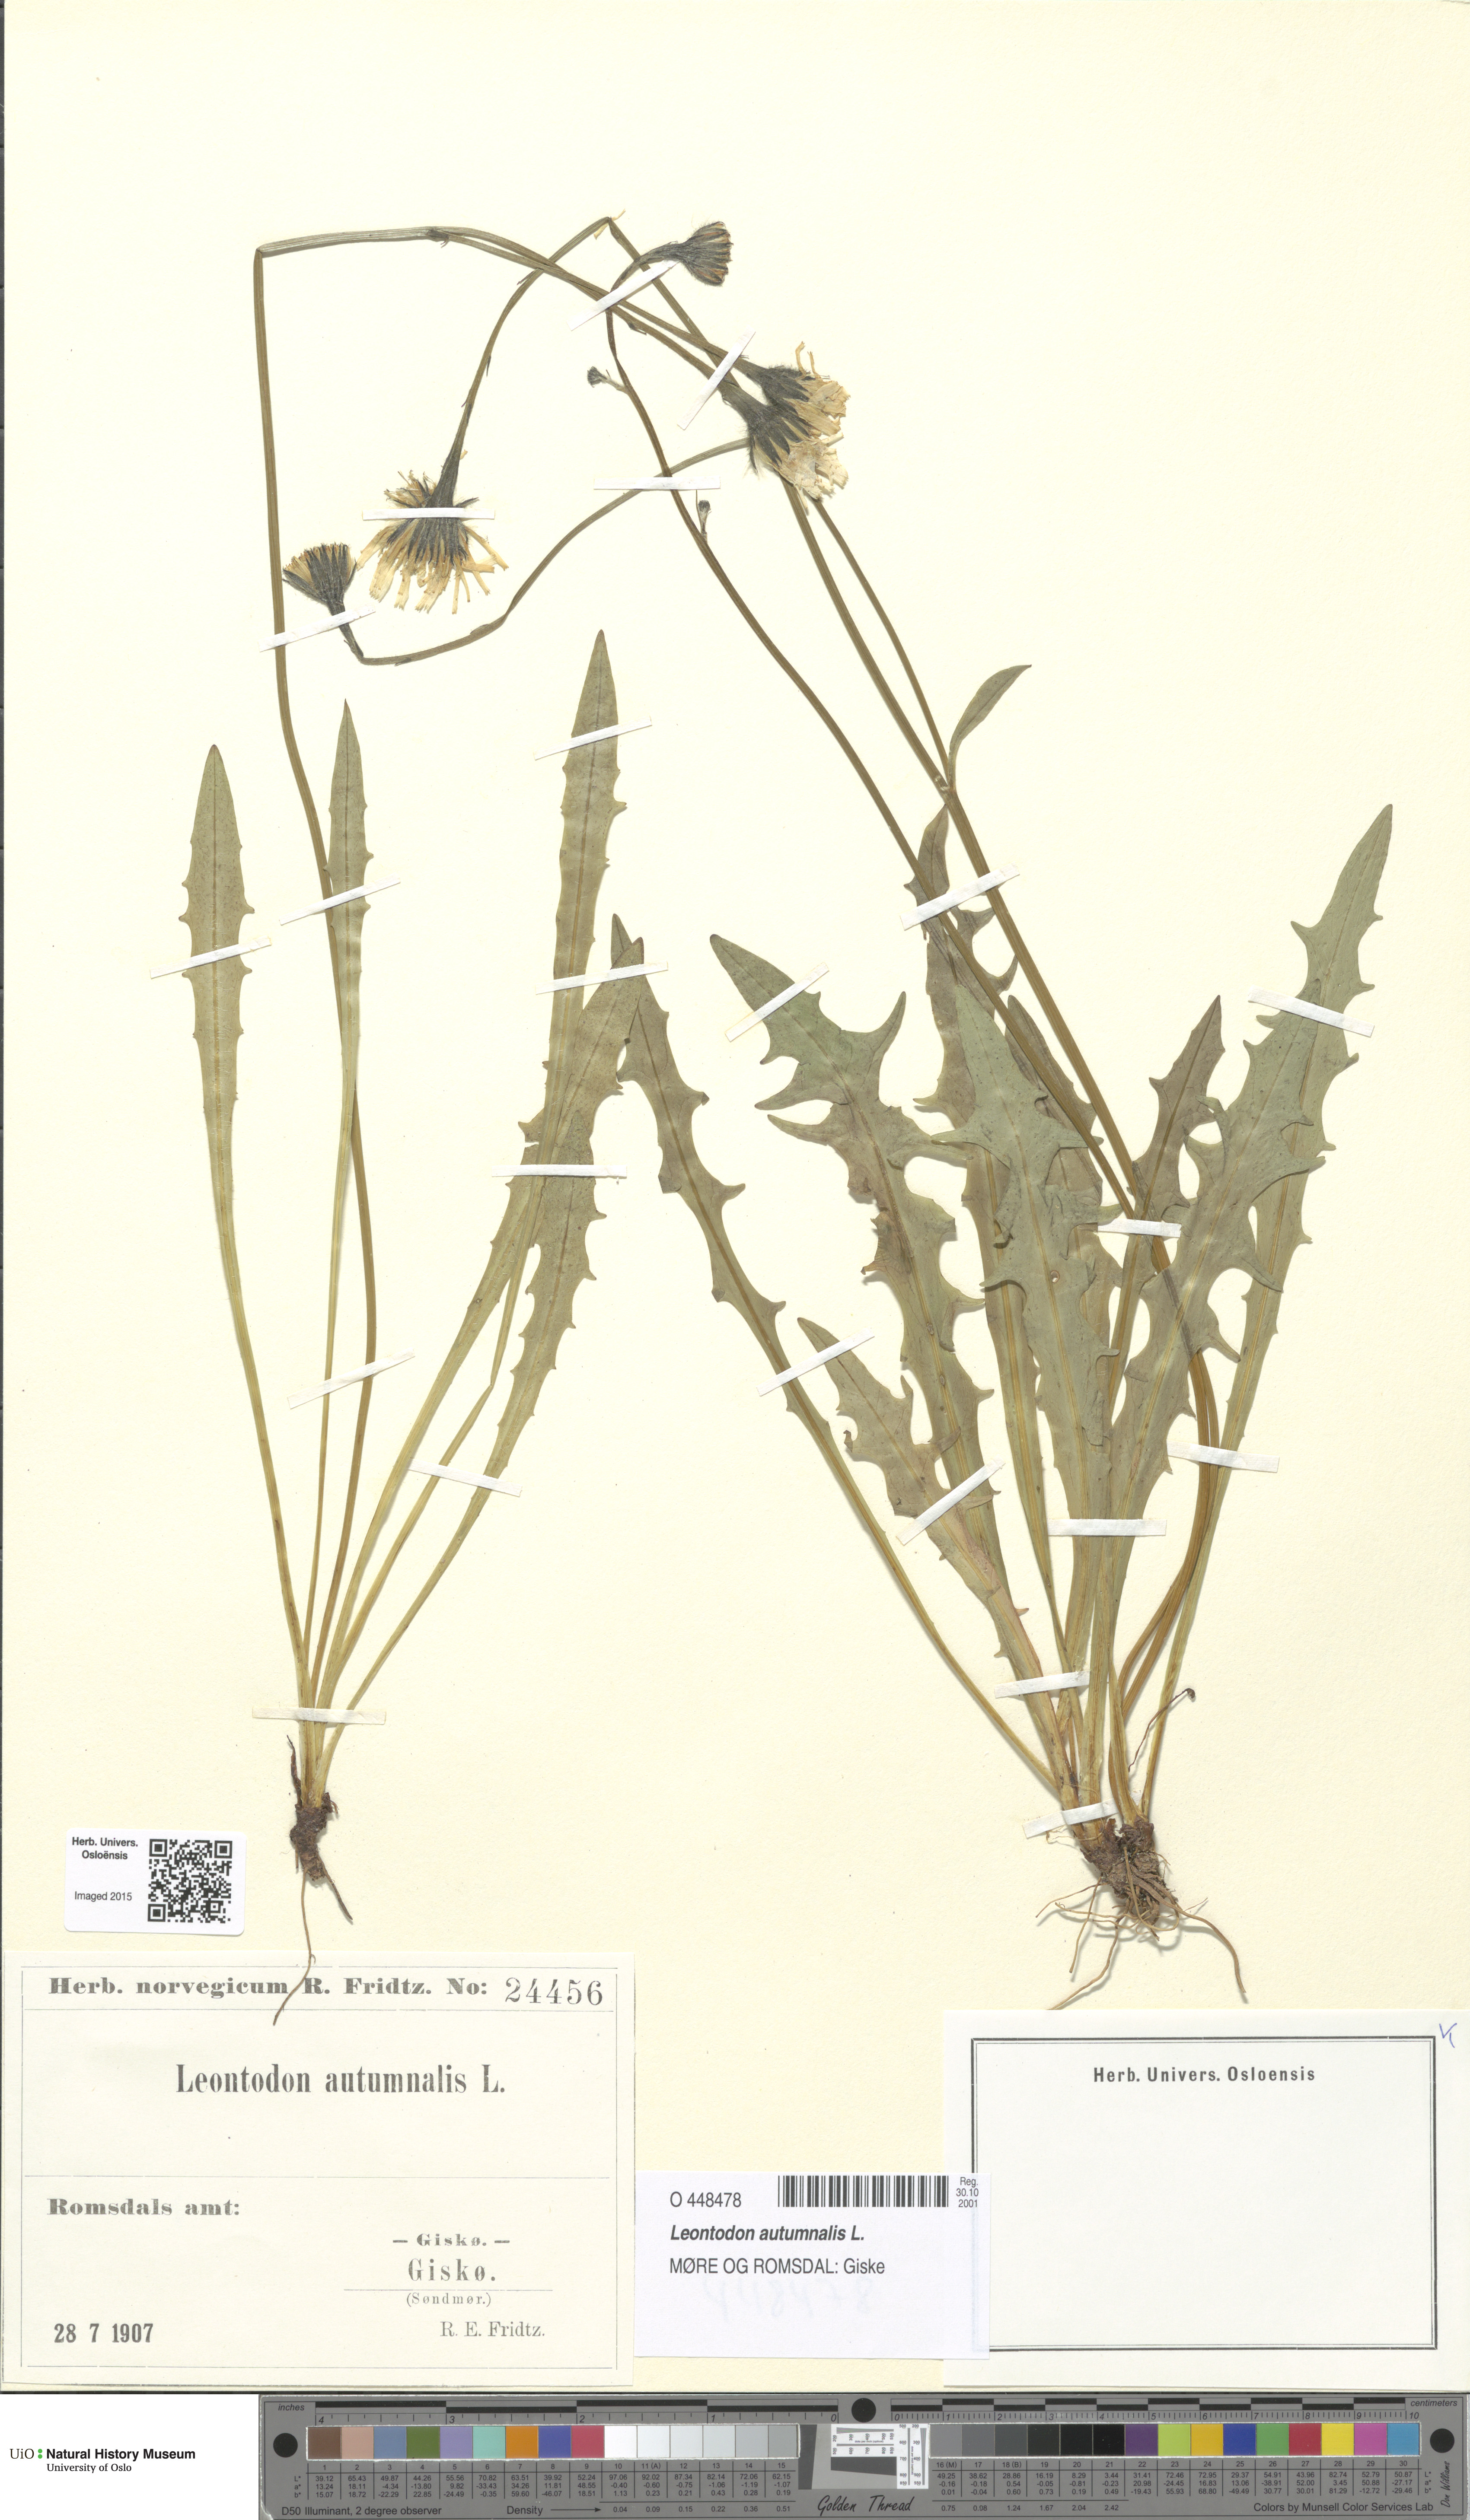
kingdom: Plantae
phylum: Tracheophyta
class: Magnoliopsida
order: Asterales
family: Asteraceae
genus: Scorzoneroides
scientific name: Scorzoneroides autumnalis
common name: Autumn hawkbit
